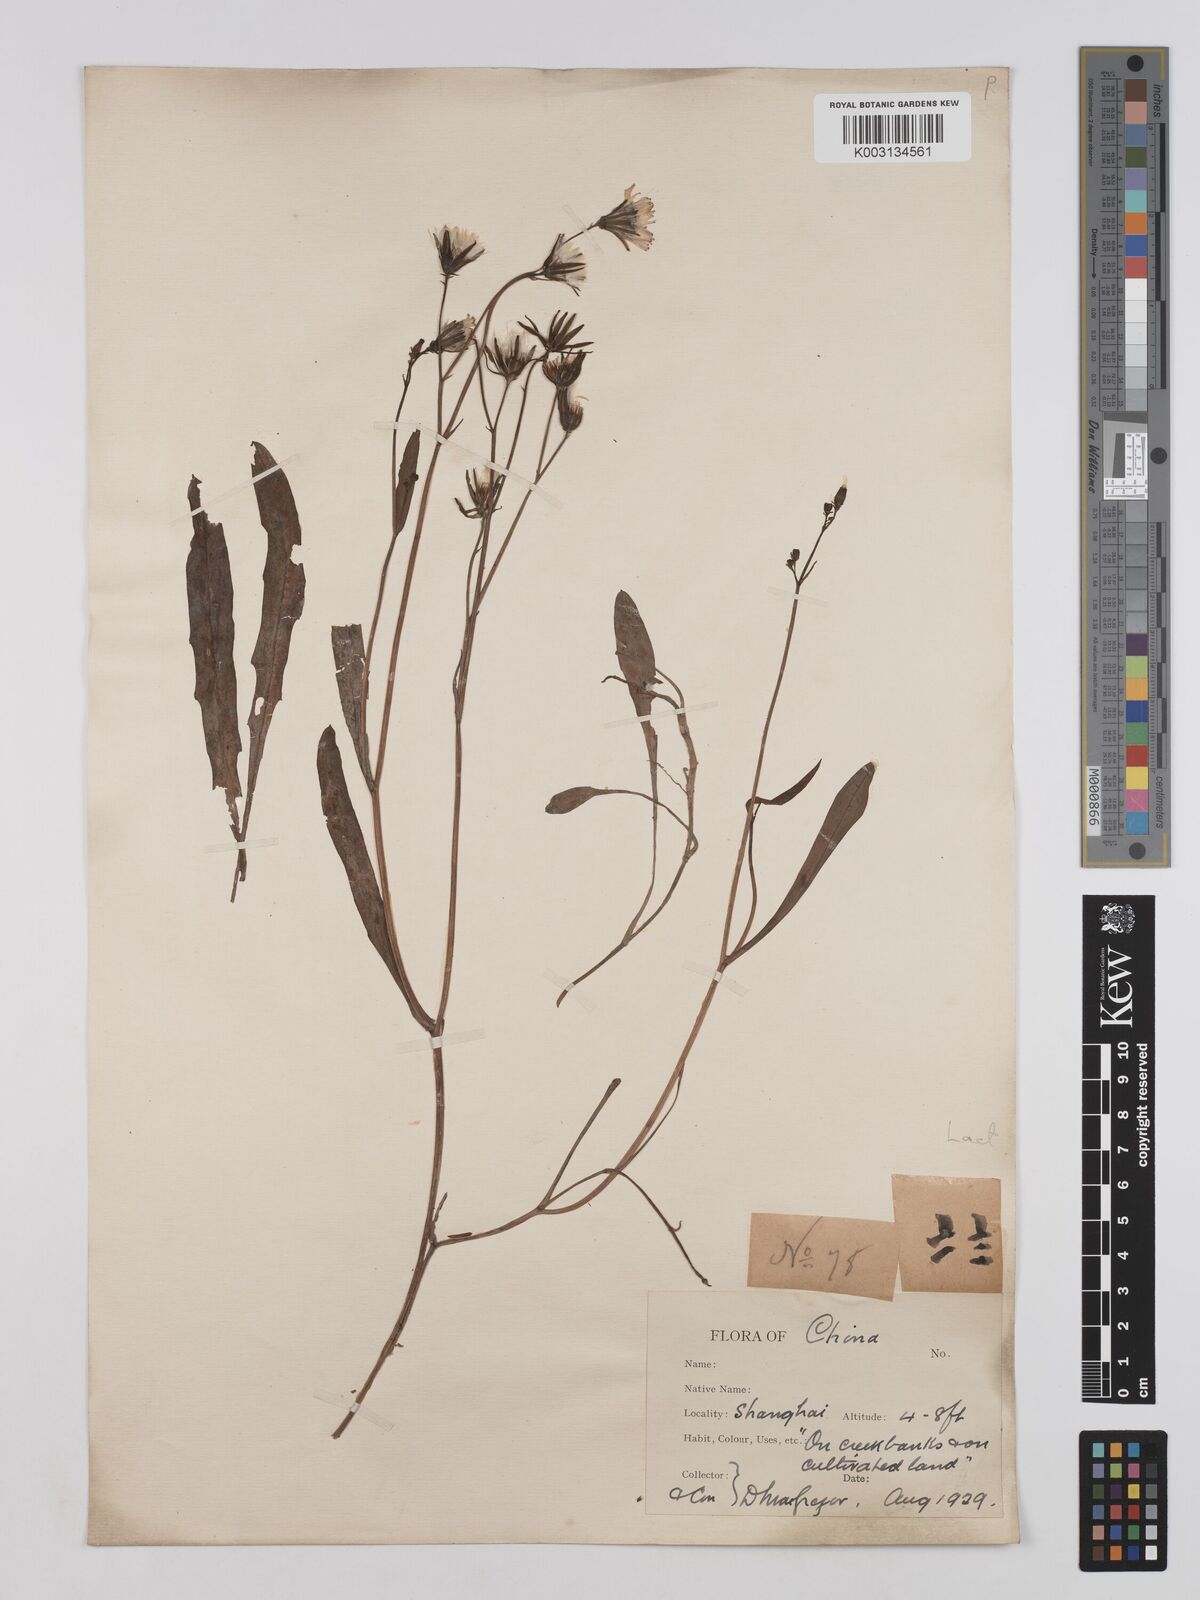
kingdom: Plantae
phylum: Tracheophyta
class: Magnoliopsida
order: Asterales
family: Asteraceae
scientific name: Asteraceae
